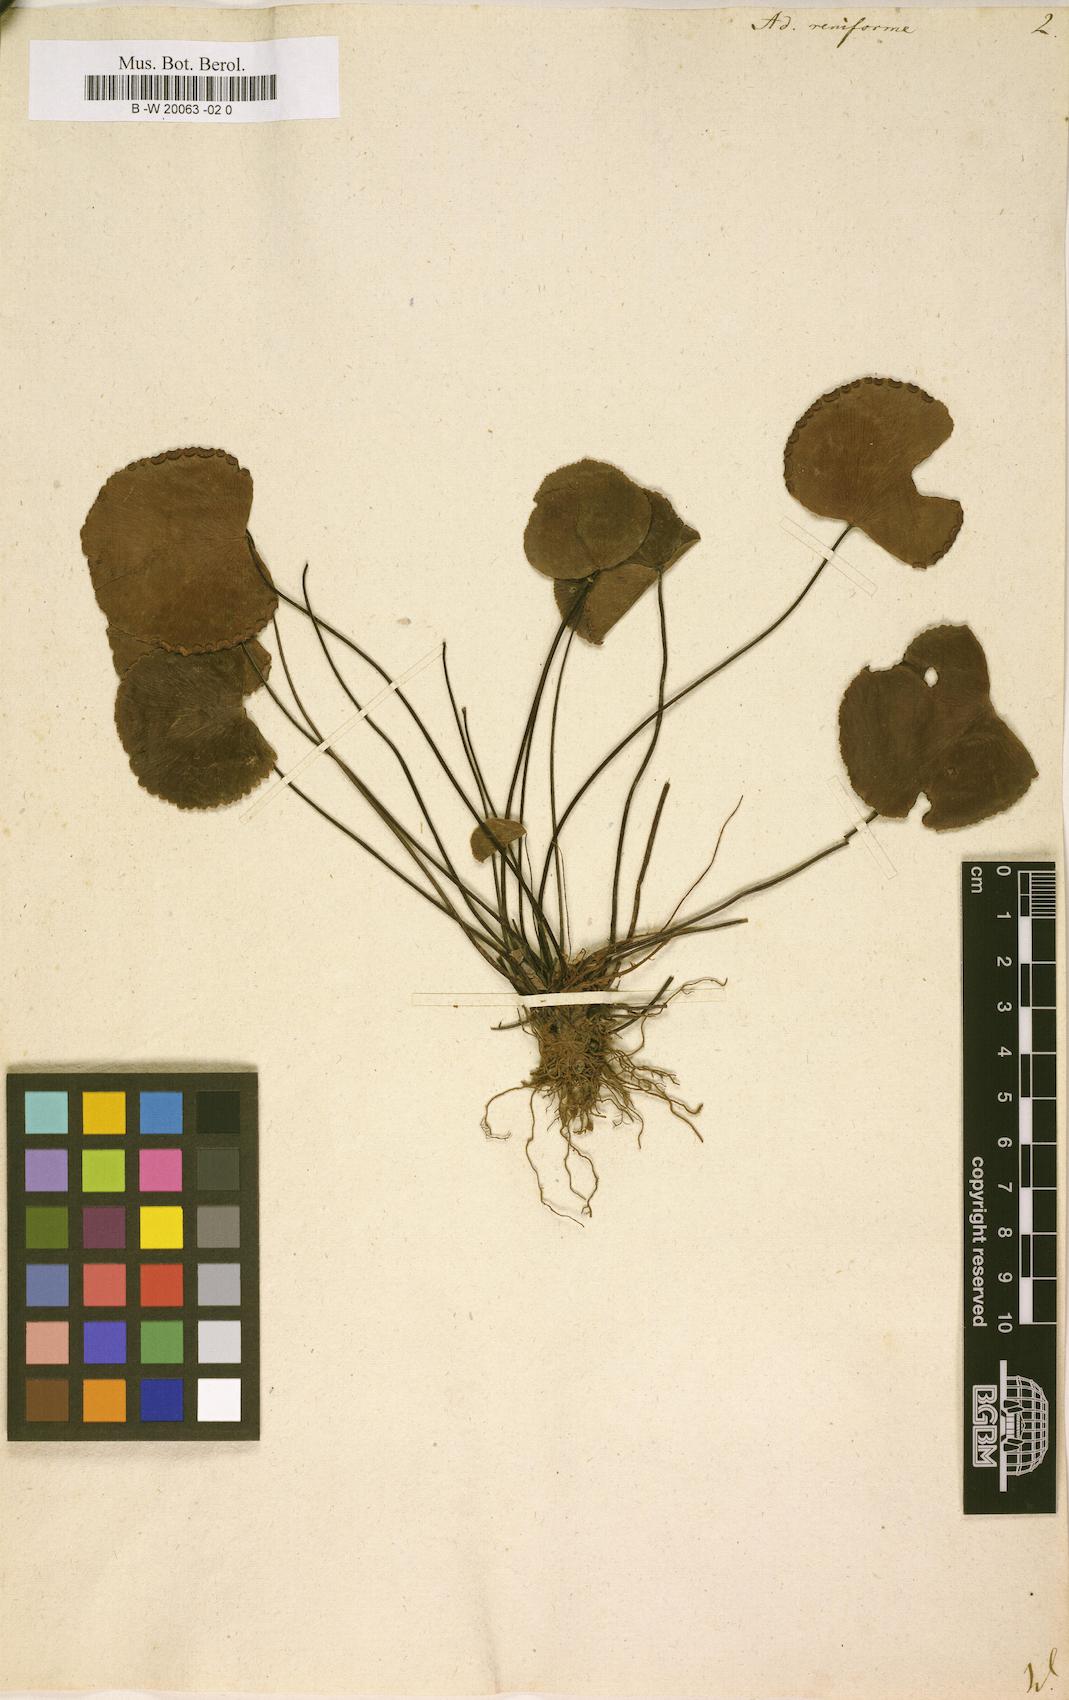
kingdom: Plantae
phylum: Tracheophyta
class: Polypodiopsida
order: Polypodiales
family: Pteridaceae
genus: Adiantum
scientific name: Adiantum reniforme
